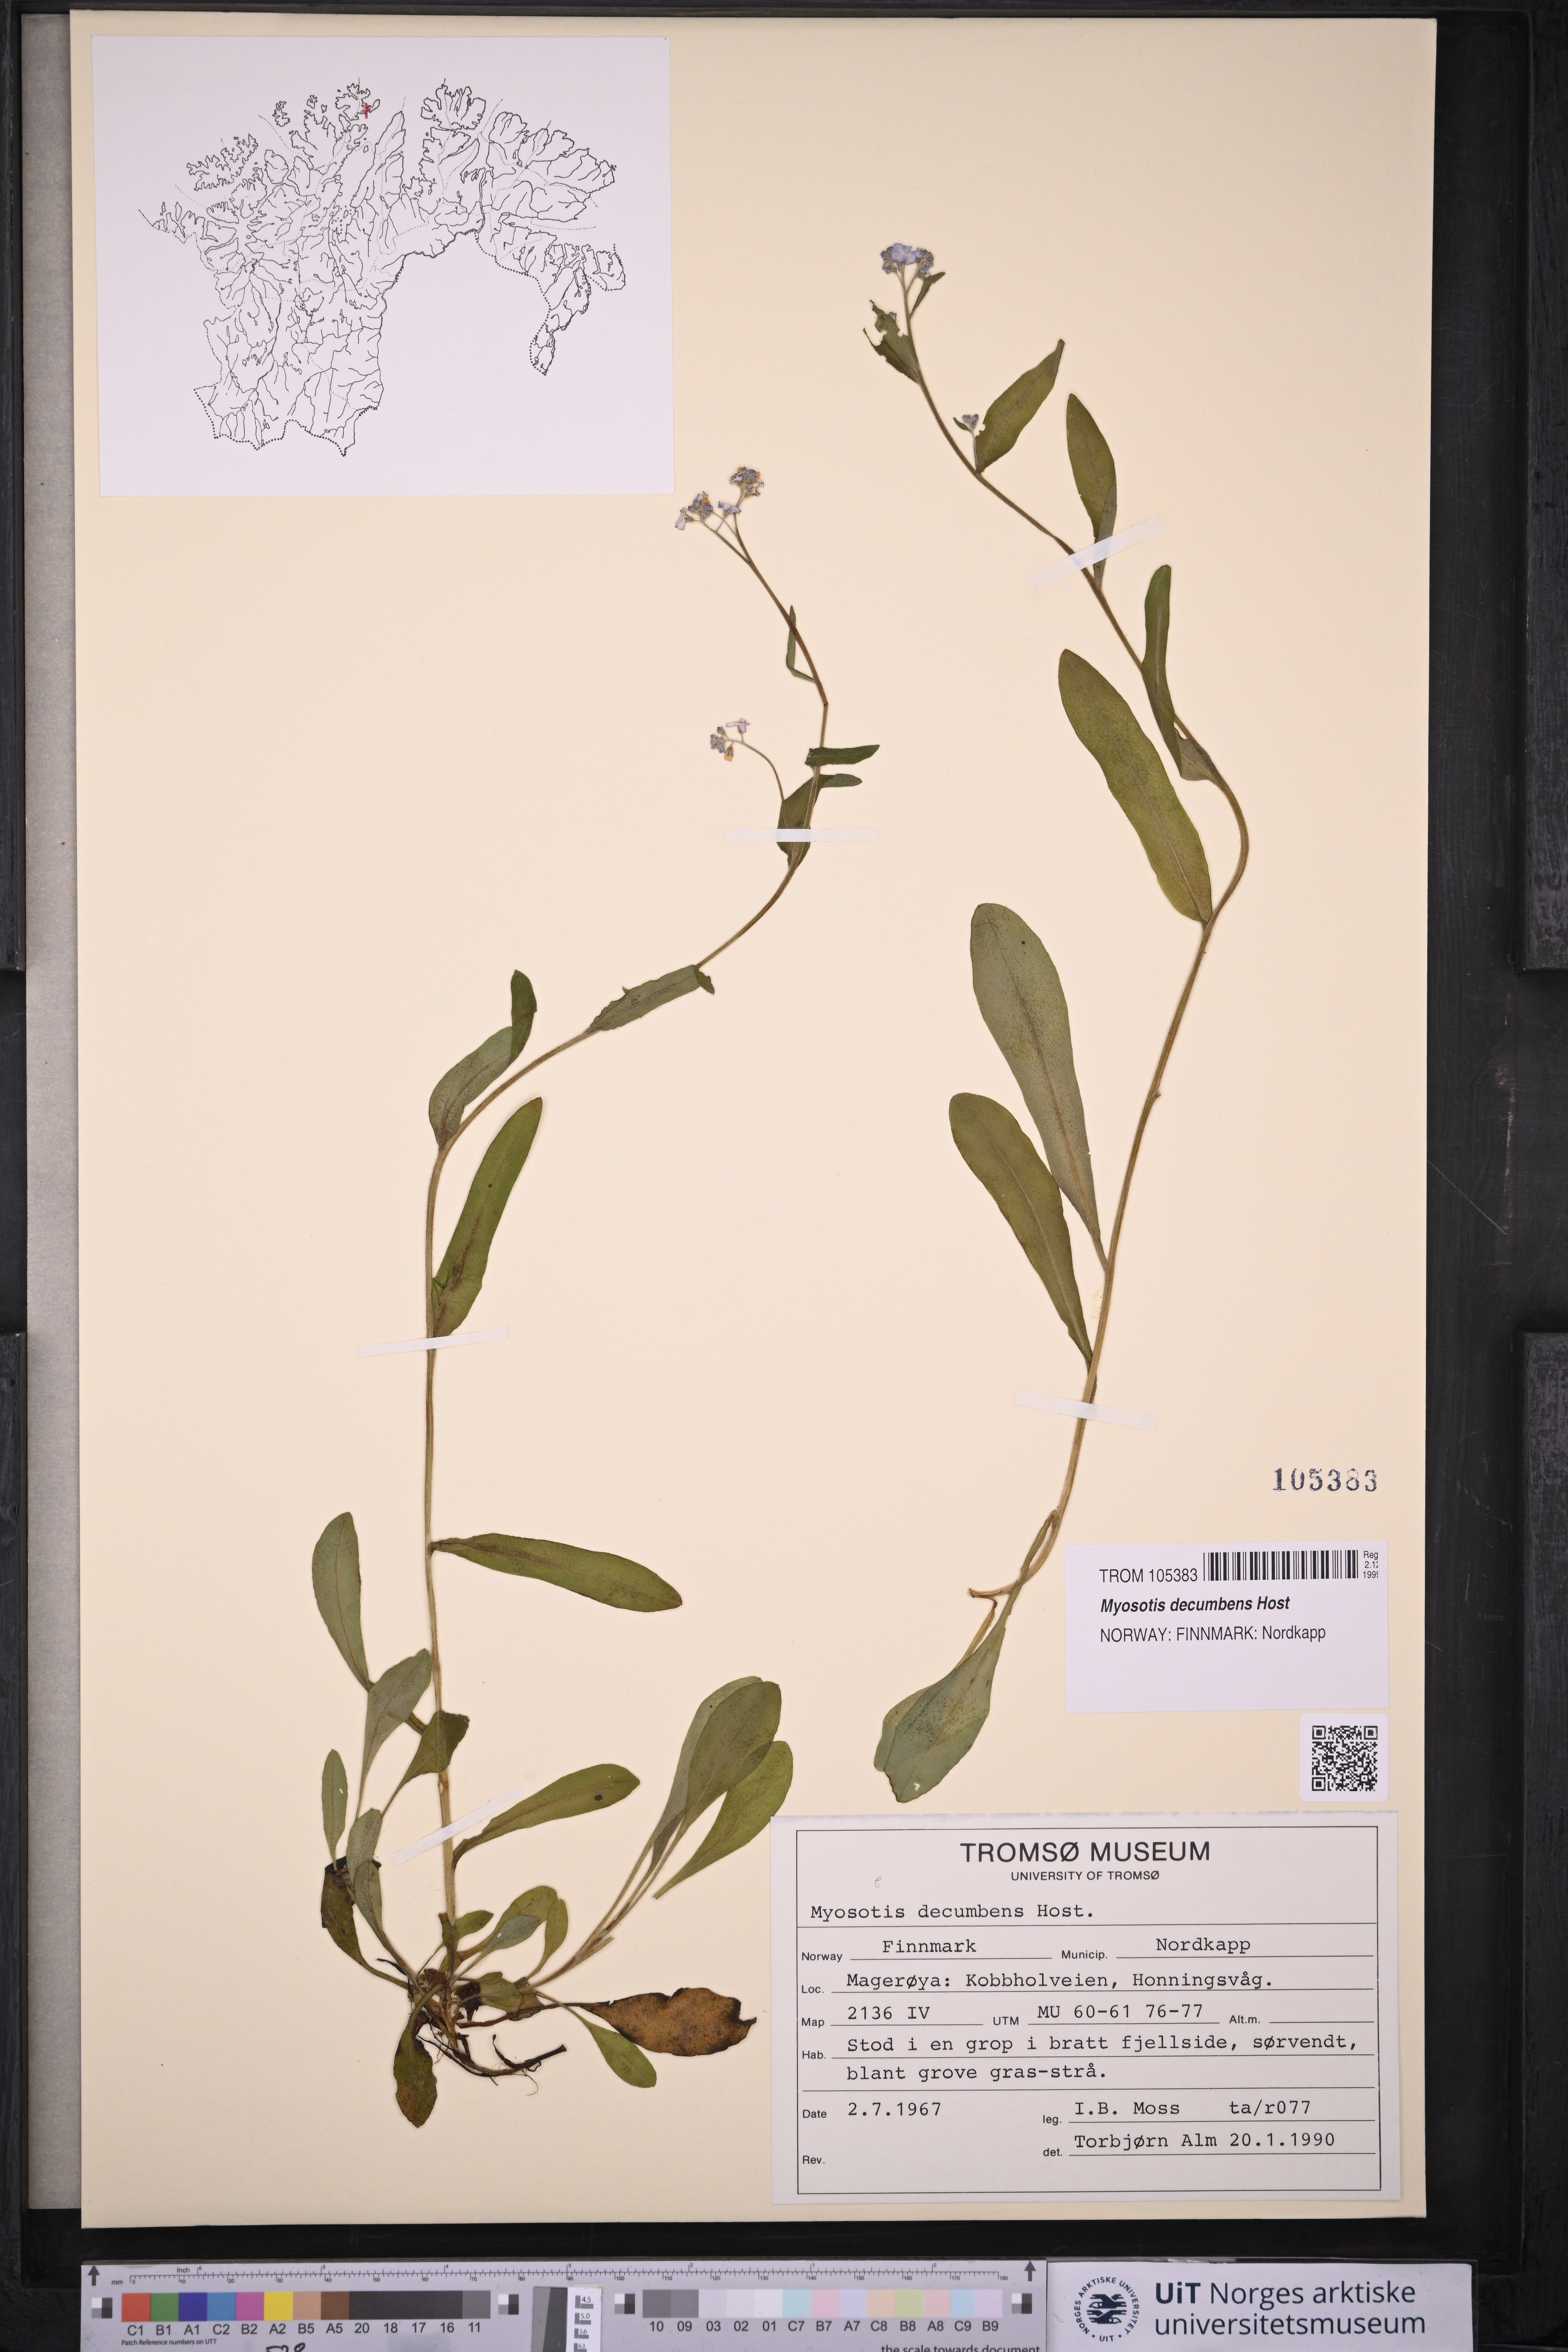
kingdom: Plantae
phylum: Tracheophyta
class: Magnoliopsida
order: Boraginales
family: Boraginaceae
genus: Myosotis
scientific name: Myosotis decumbens
